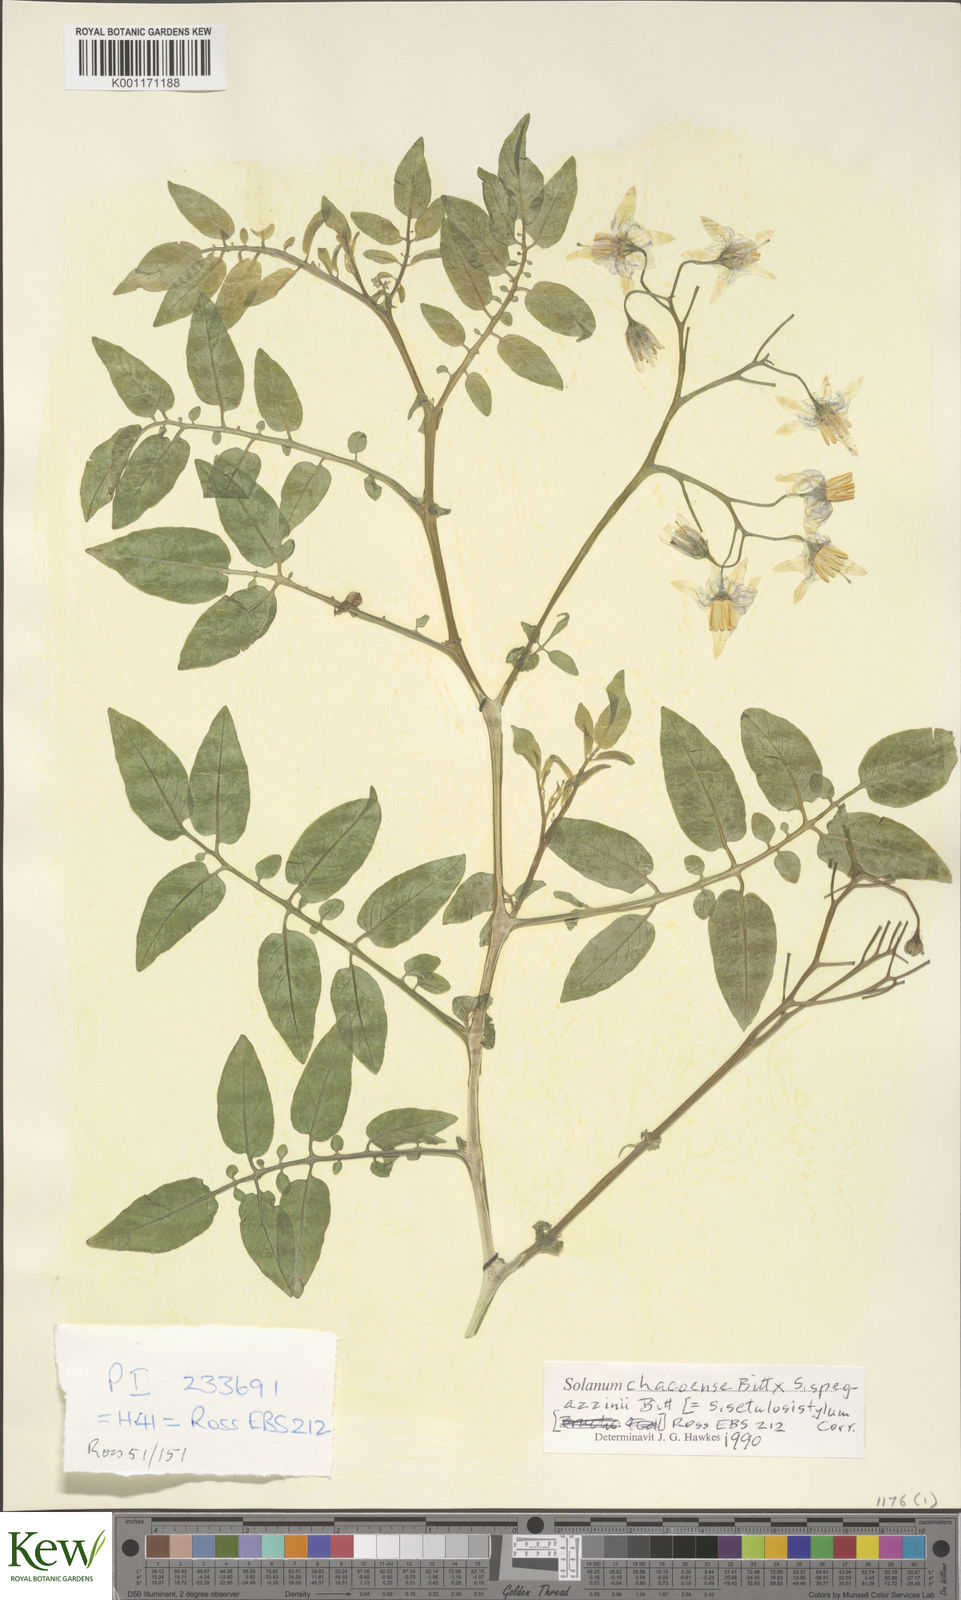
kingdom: Plantae
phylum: Tracheophyta
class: Magnoliopsida
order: Solanales
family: Solanaceae
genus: Solanum
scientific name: Solanum chacoense
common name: Chaco potato
